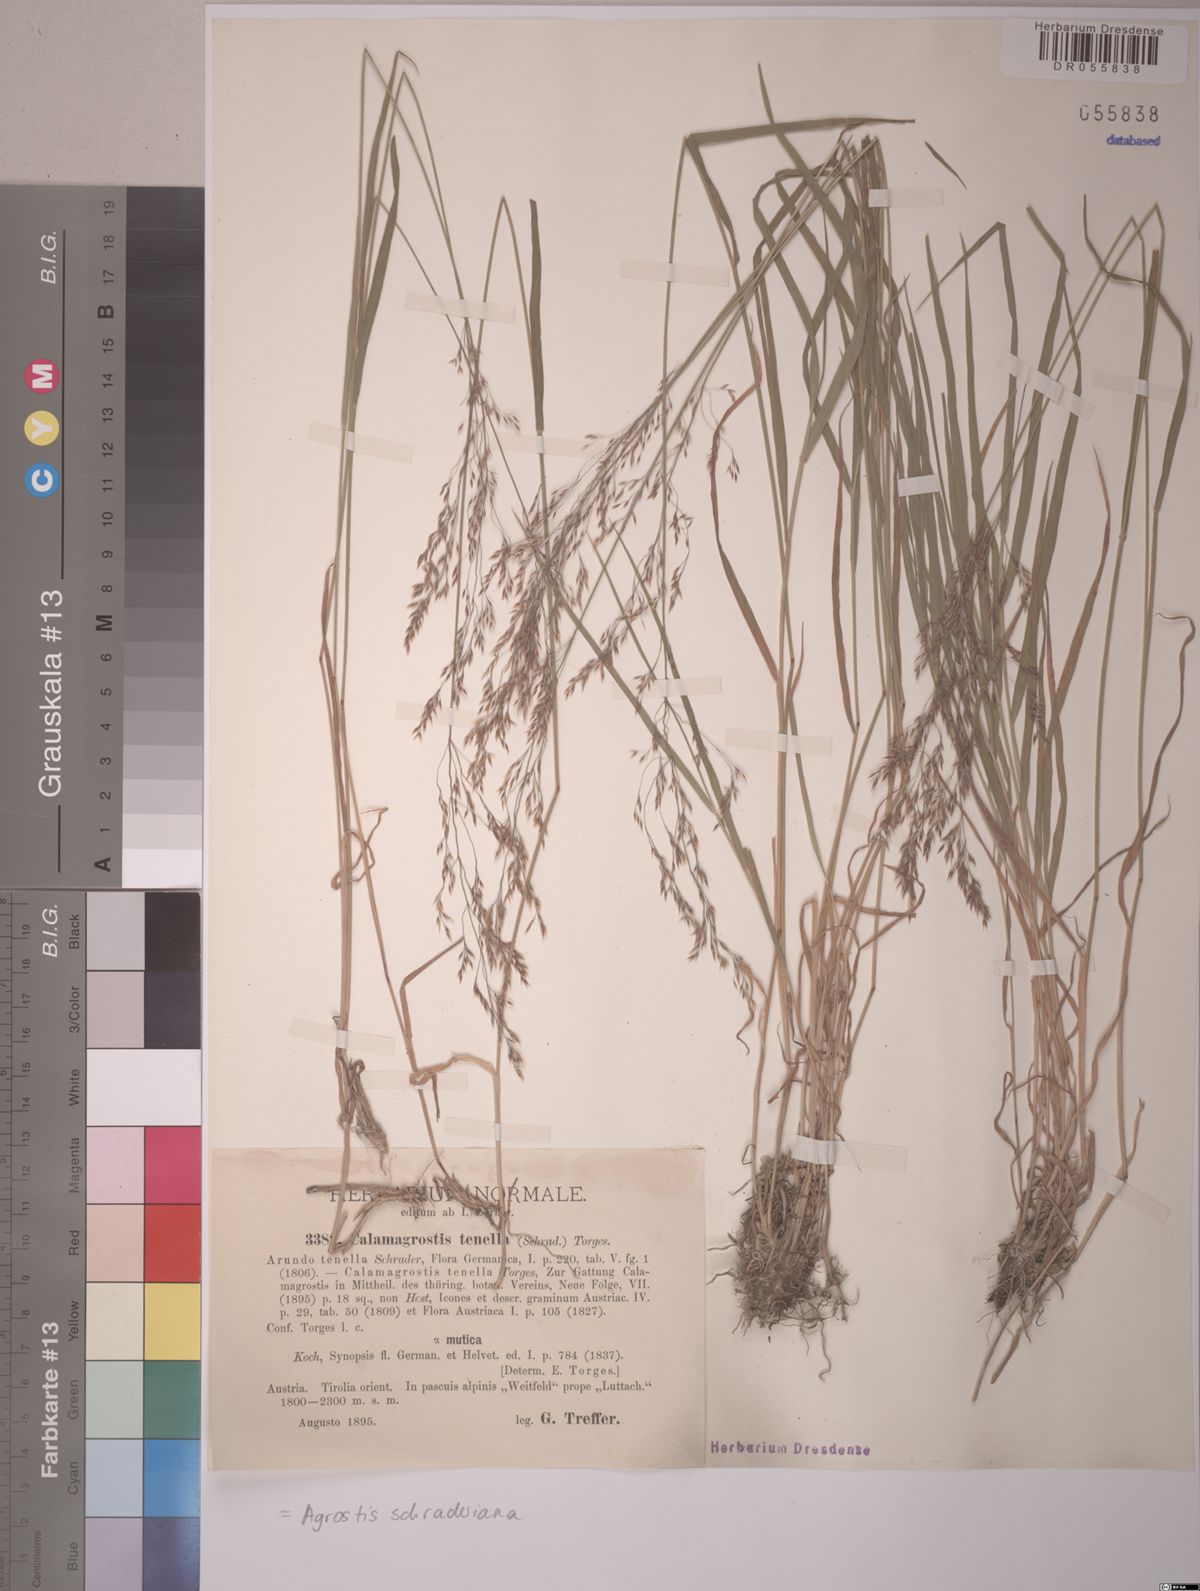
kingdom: Plantae
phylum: Tracheophyta
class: Liliopsida
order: Poales
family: Poaceae
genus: Agrostis
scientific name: Agrostis schraderiana
